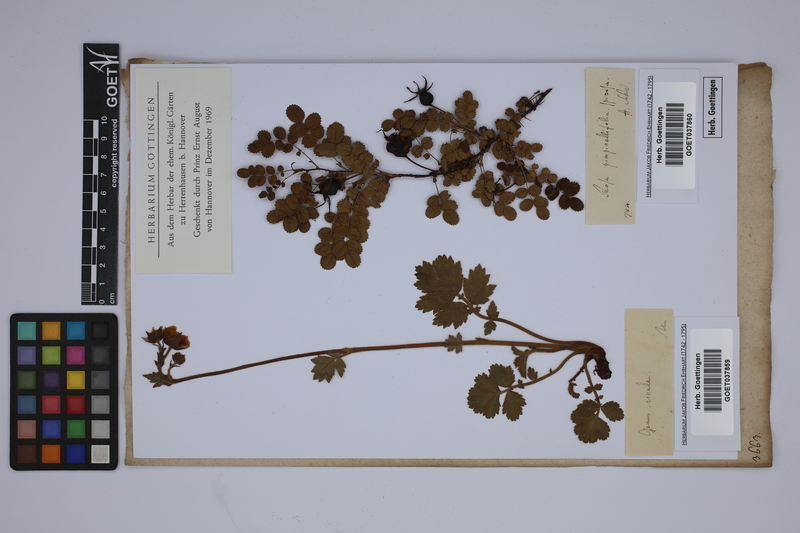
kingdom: Plantae
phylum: Tracheophyta
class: Magnoliopsida
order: Rosales
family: Rosaceae
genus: Geum
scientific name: Geum rivale
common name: Water avens
